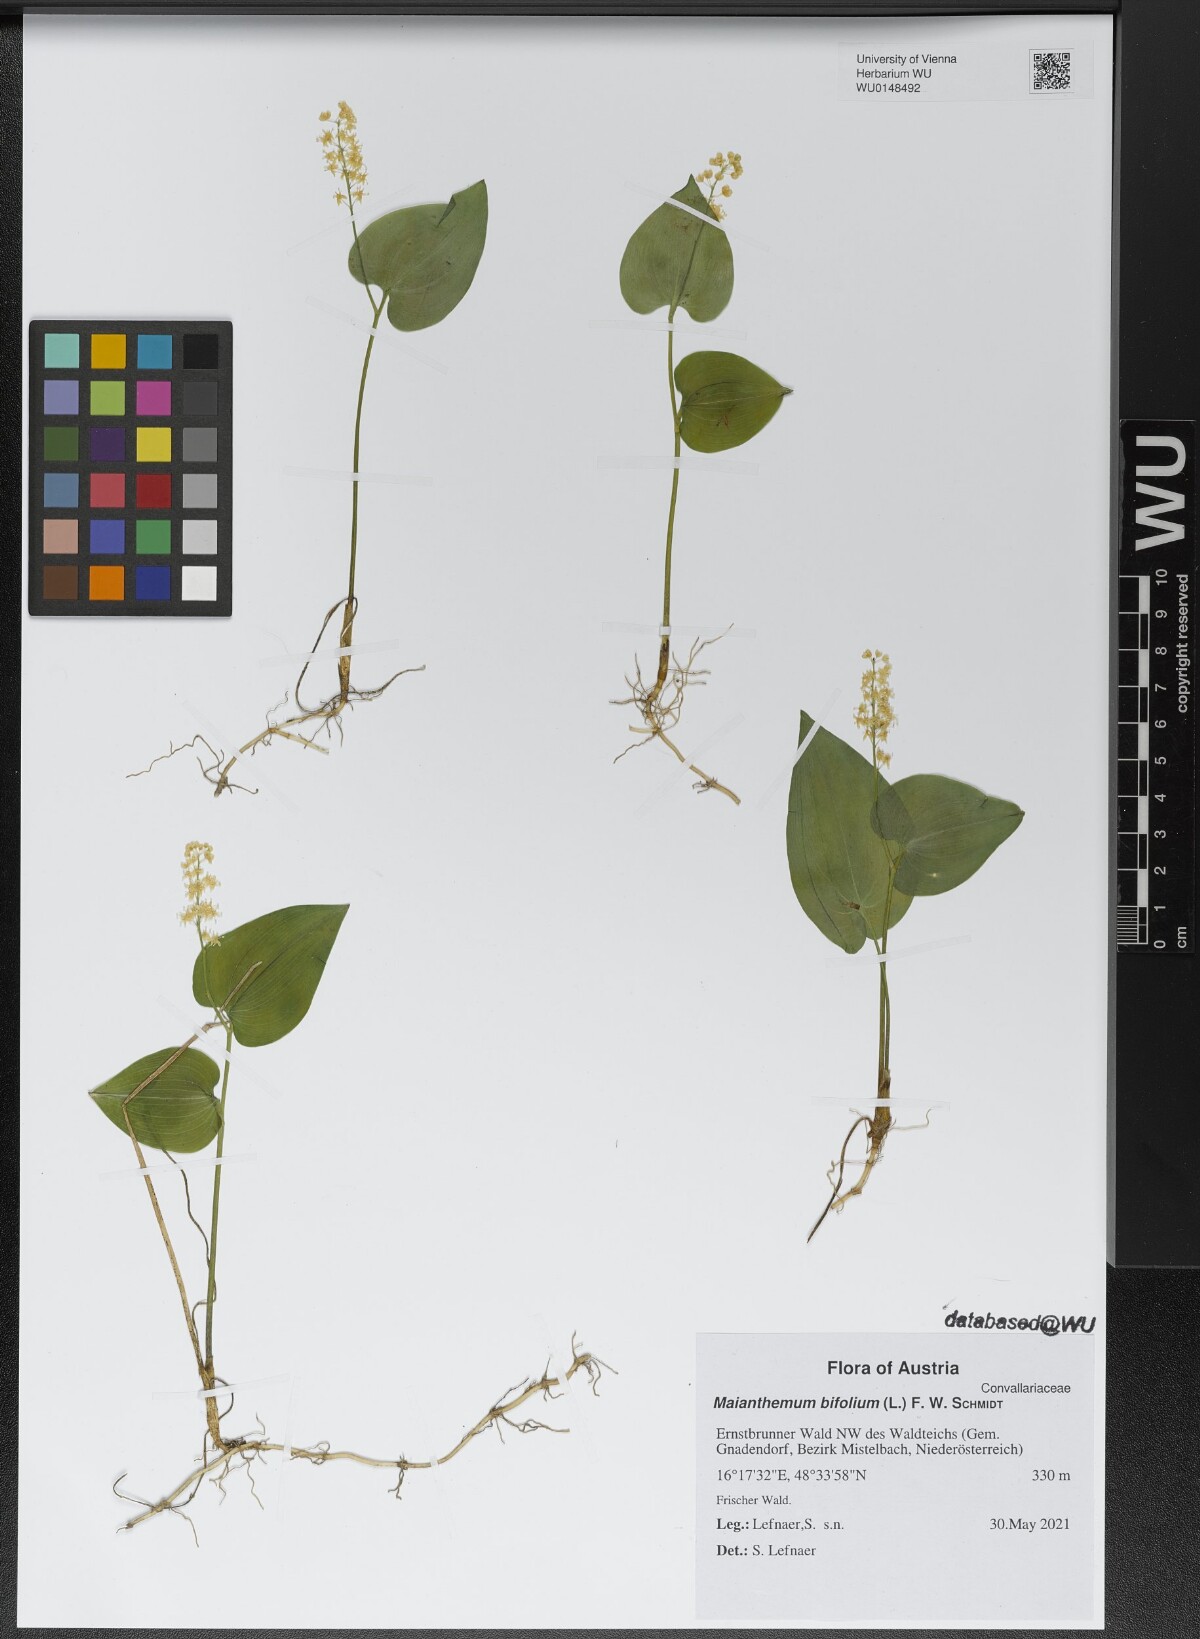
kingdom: Plantae
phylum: Tracheophyta
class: Liliopsida
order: Asparagales
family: Asparagaceae
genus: Maianthemum
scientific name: Maianthemum bifolium
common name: May lily
